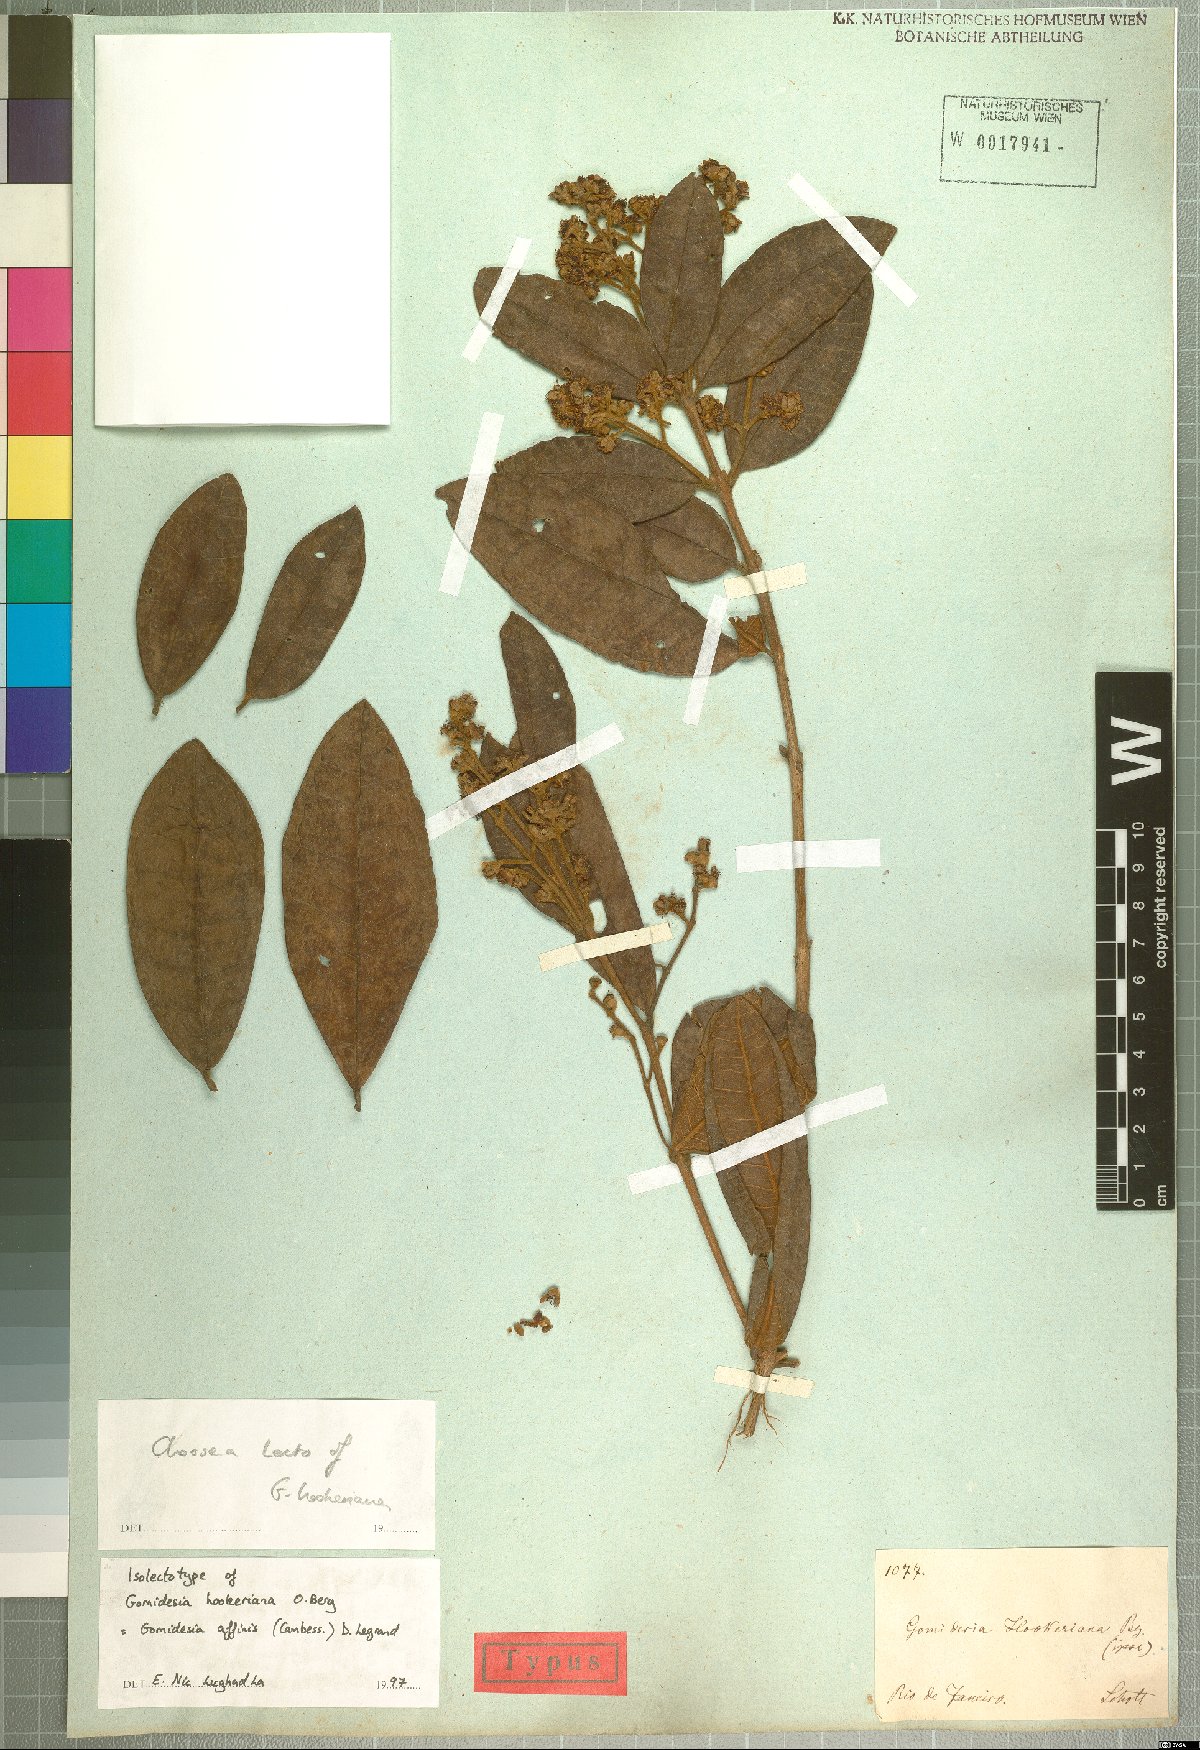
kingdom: Plantae
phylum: Tracheophyta
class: Magnoliopsida
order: Myrtales
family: Myrtaceae
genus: Myrcia
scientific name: Myrcia hebepetala
